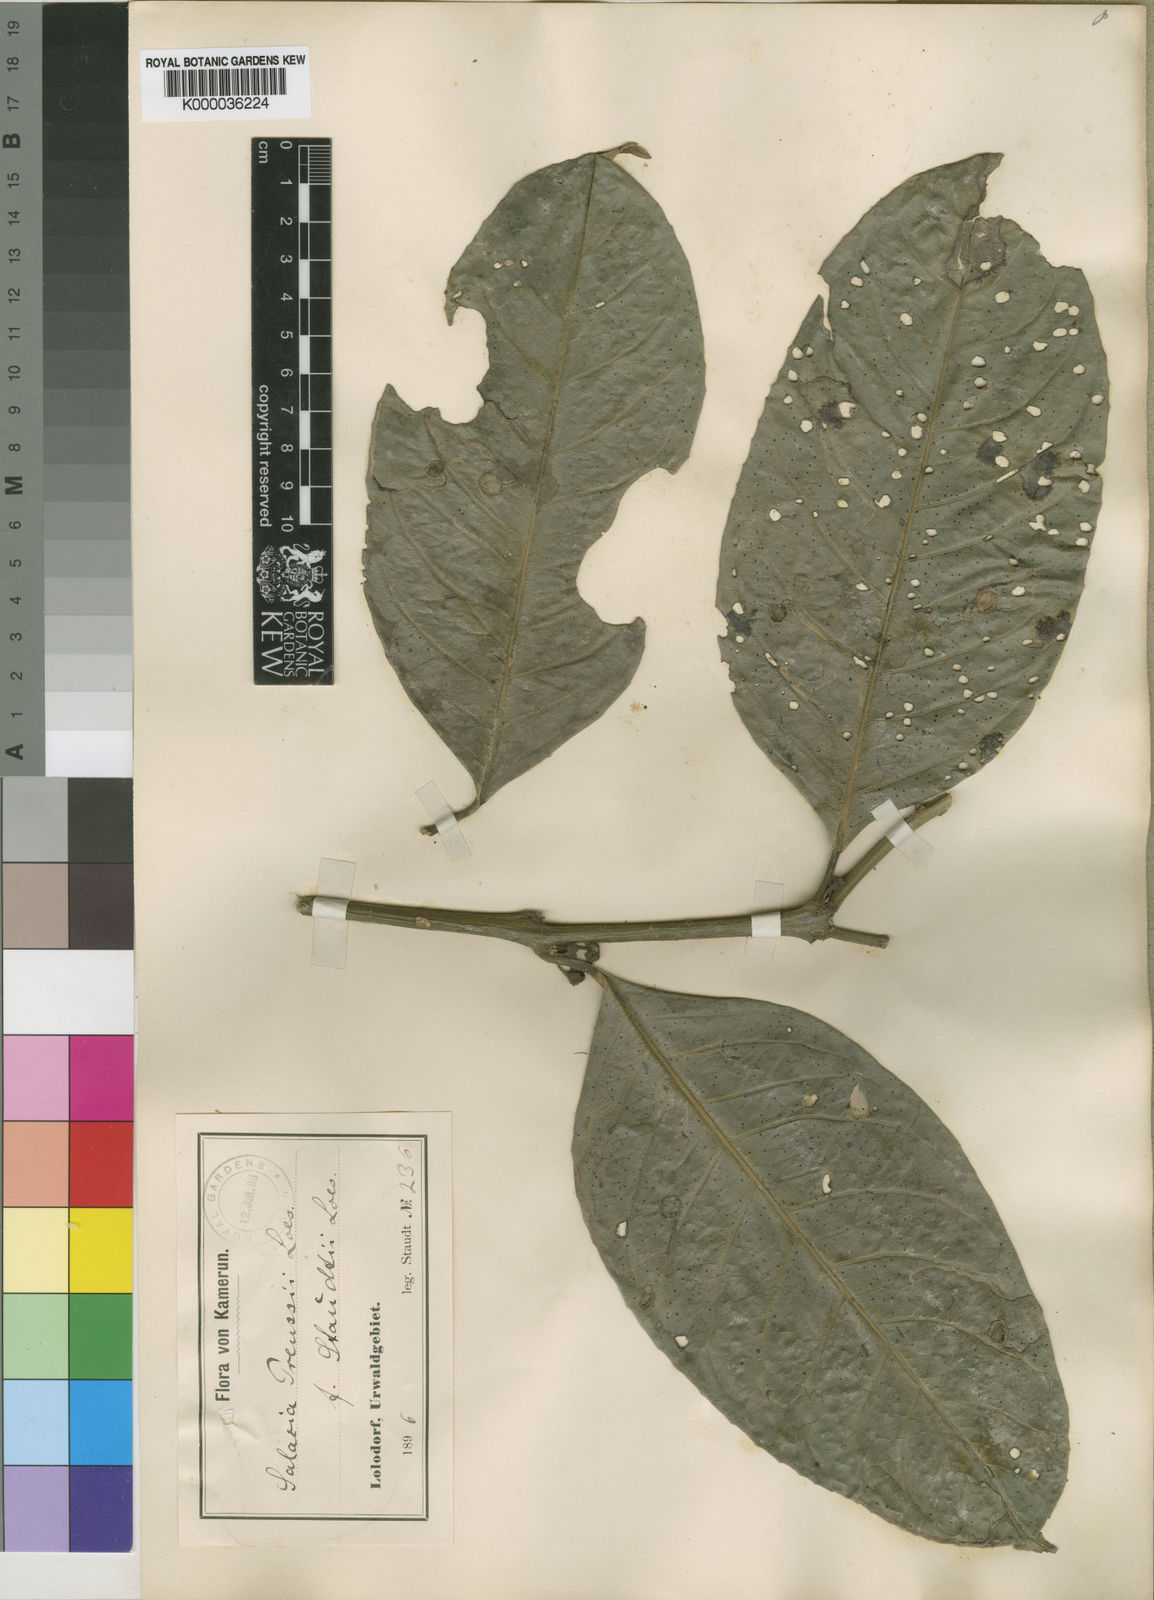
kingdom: Plantae
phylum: Tracheophyta
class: Magnoliopsida
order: Celastrales
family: Celastraceae
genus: Salacia
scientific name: Salacia preussii
